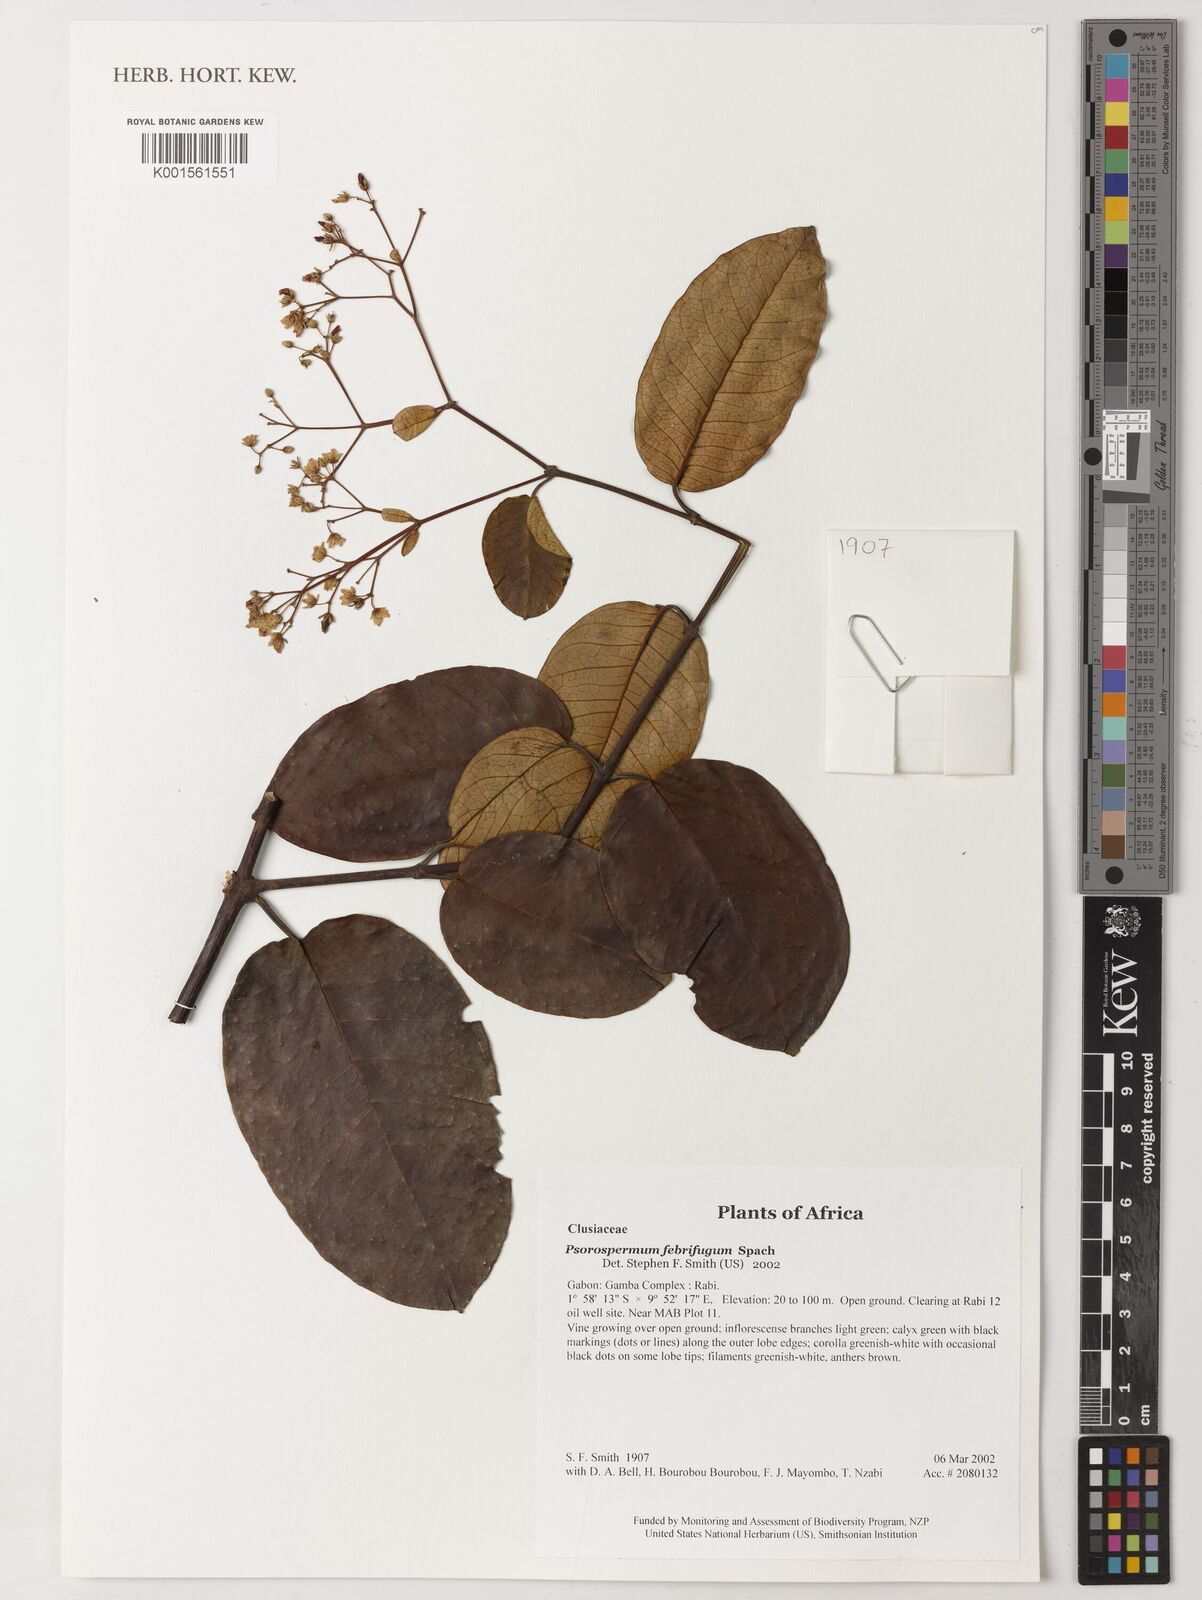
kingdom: Plantae
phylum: Tracheophyta
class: Magnoliopsida
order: Malpighiales
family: Hypericaceae
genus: Psorospermum
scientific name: Psorospermum febrifugum
